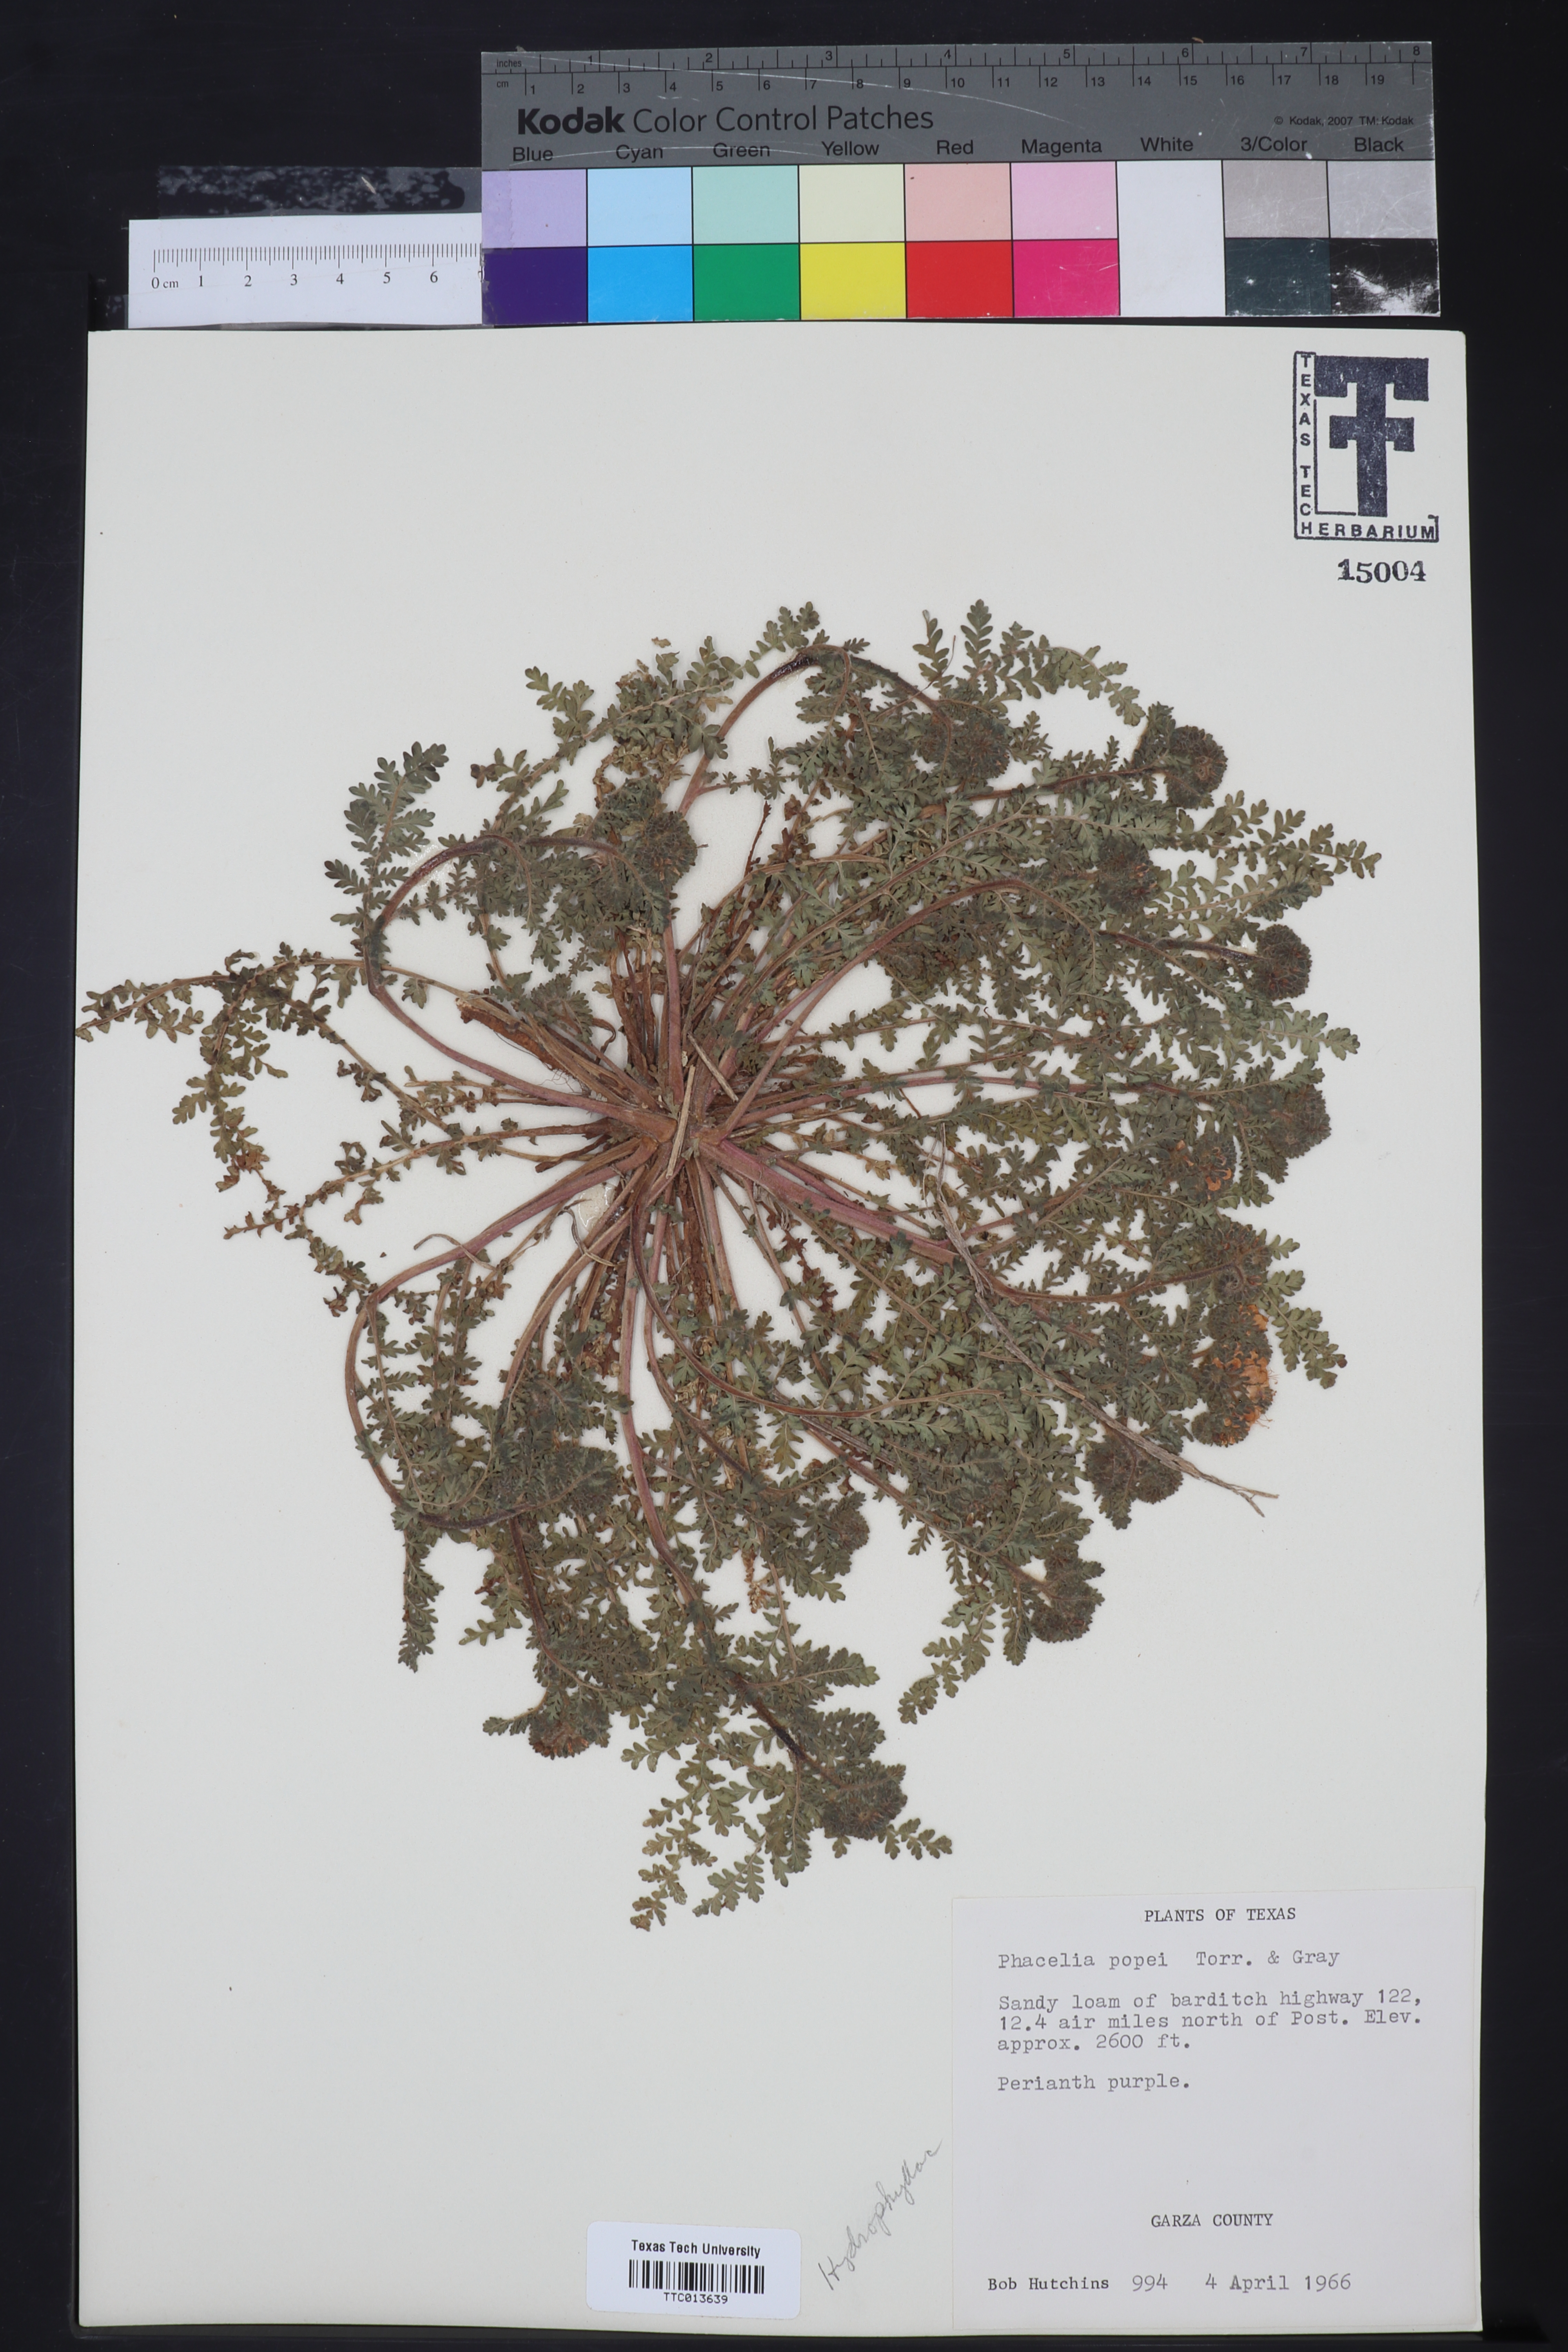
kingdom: Plantae
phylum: Tracheophyta
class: Magnoliopsida
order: Boraginales
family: Hydrophyllaceae
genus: Phacelia
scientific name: Phacelia popei
